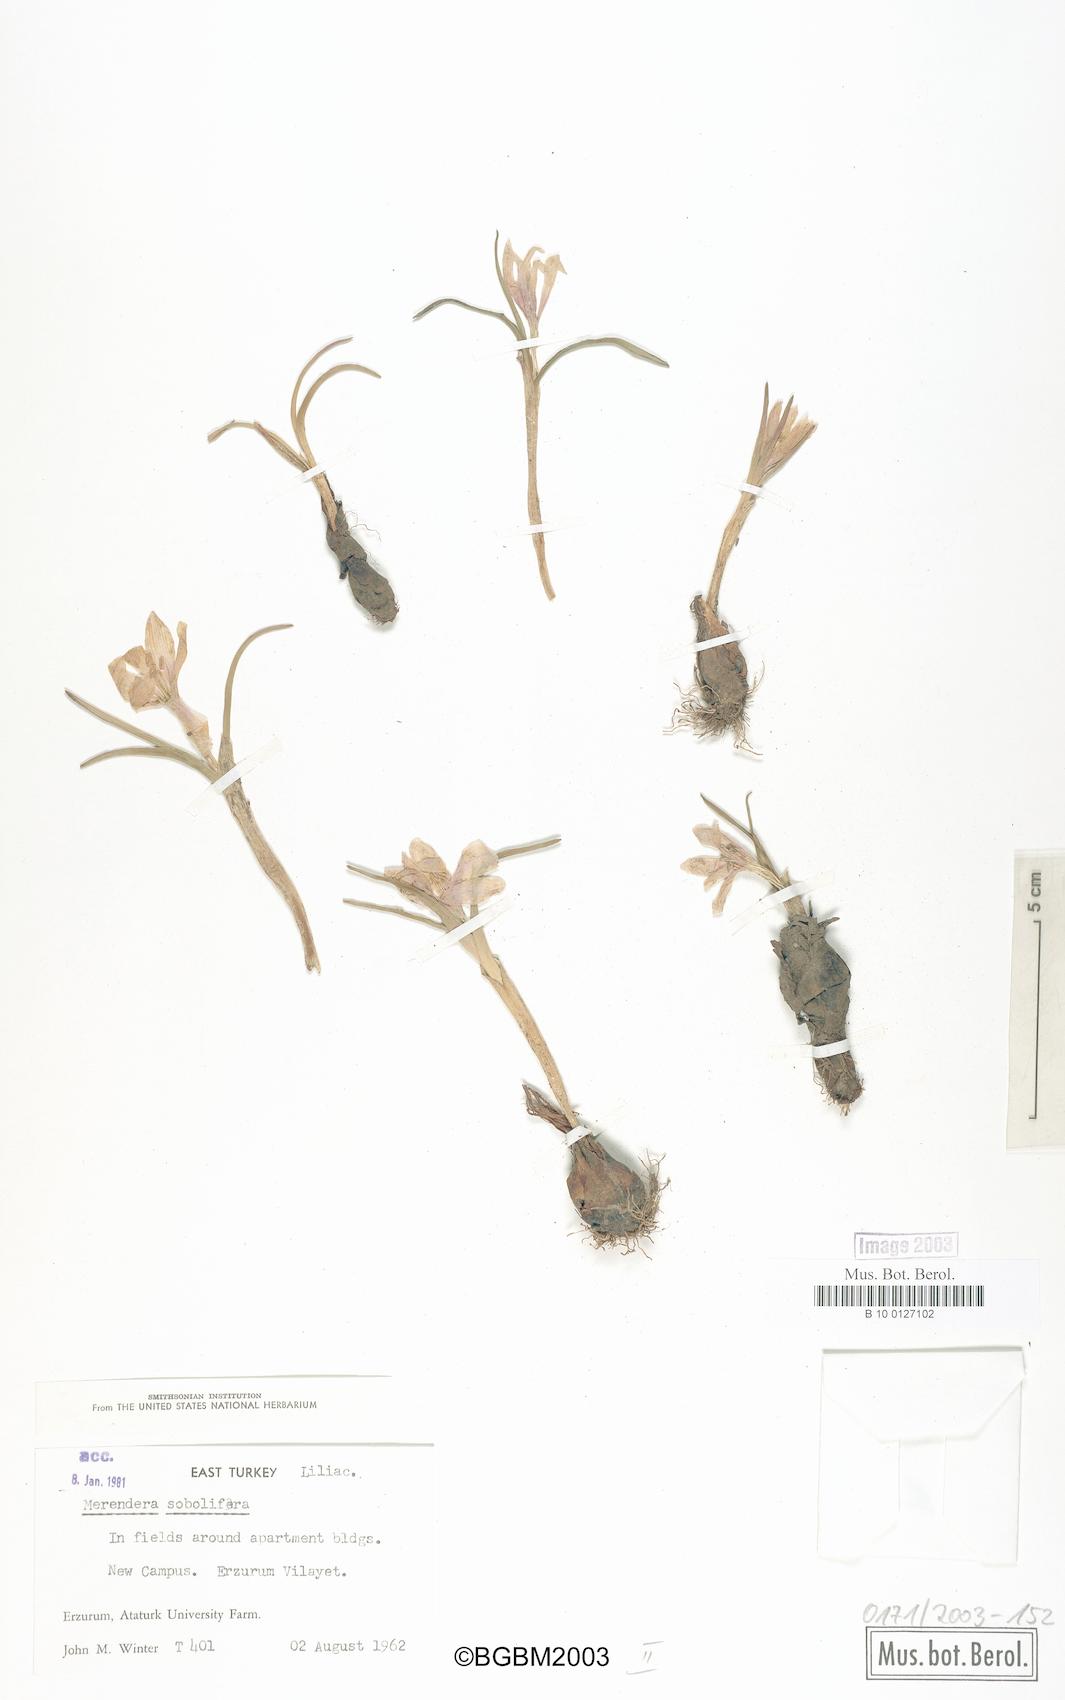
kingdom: Plantae
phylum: Tracheophyta
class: Liliopsida
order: Liliales
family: Colchicaceae
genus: Colchicum
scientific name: Colchicum soboliferum
